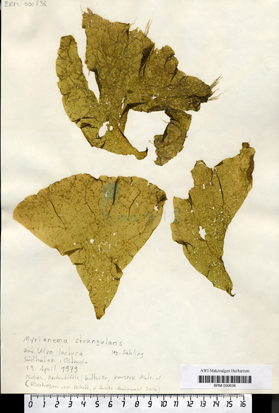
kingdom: Chromista
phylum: Ochrophyta
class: Phaeophyceae
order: Ectocarpales
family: Chordariaceae
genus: Myrionema
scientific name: Myrionema strangulans
